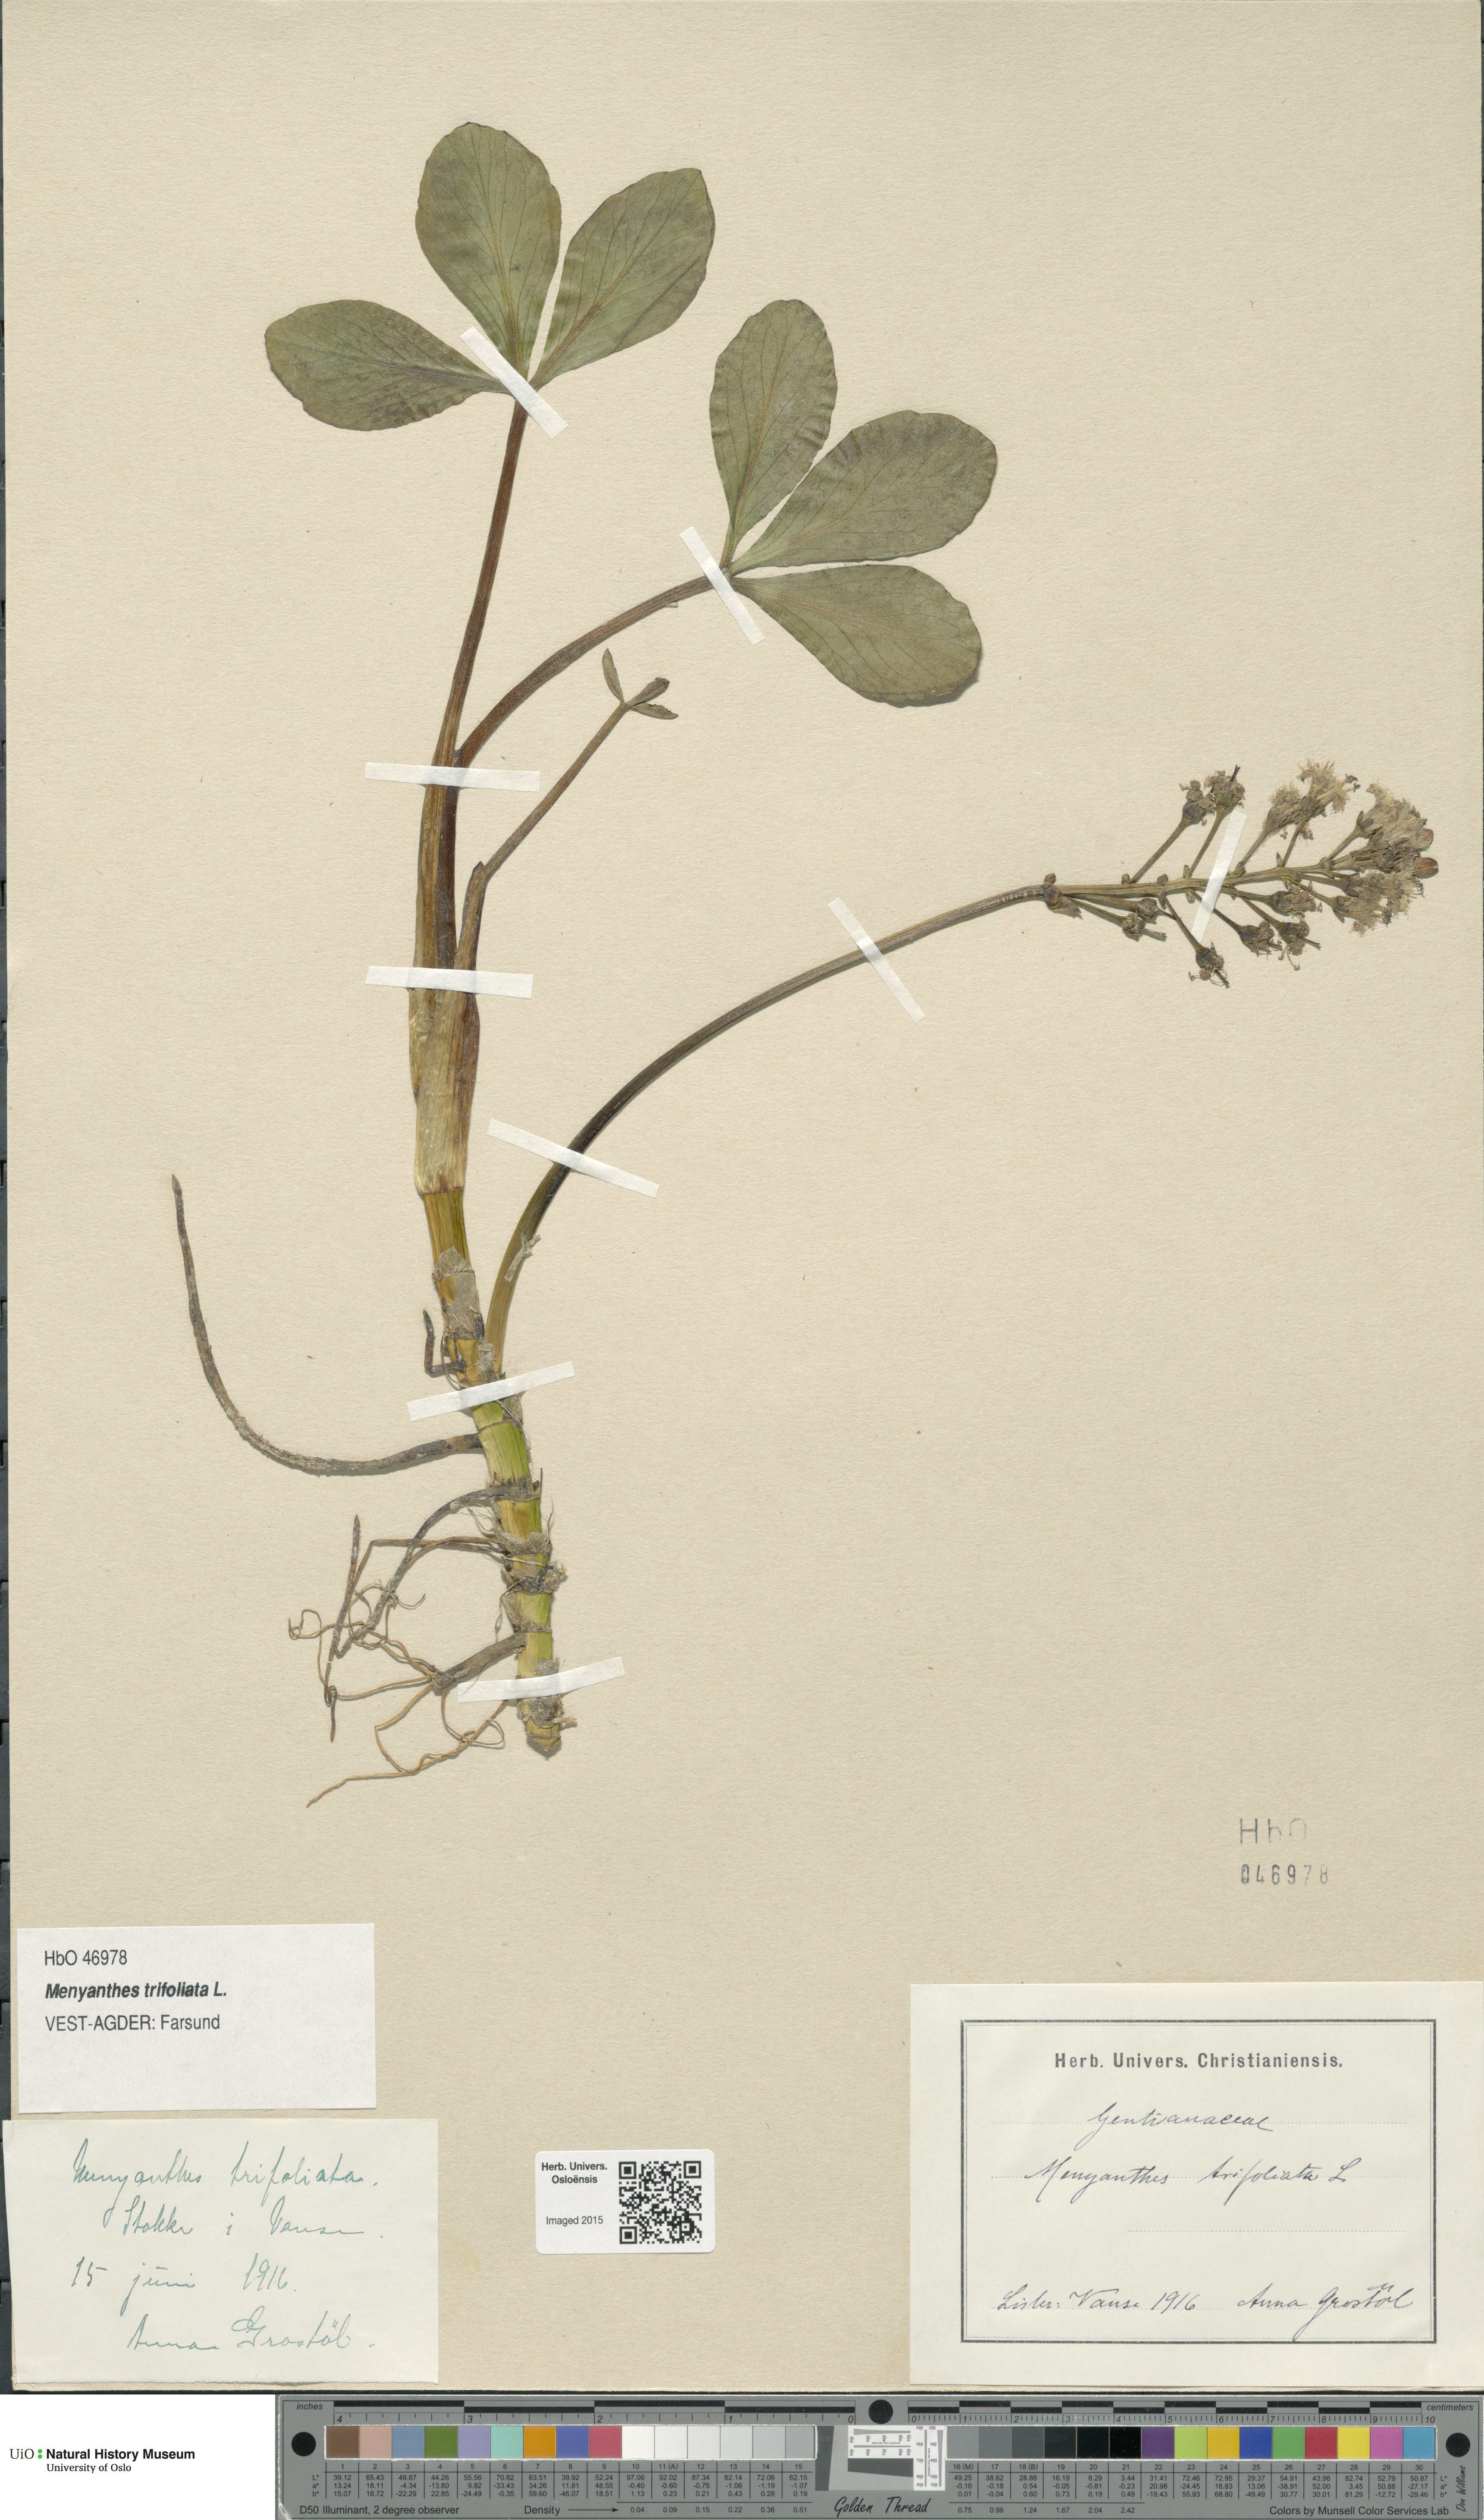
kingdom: Plantae
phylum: Tracheophyta
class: Magnoliopsida
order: Asterales
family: Menyanthaceae
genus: Menyanthes
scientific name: Menyanthes trifoliata
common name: Bogbean
